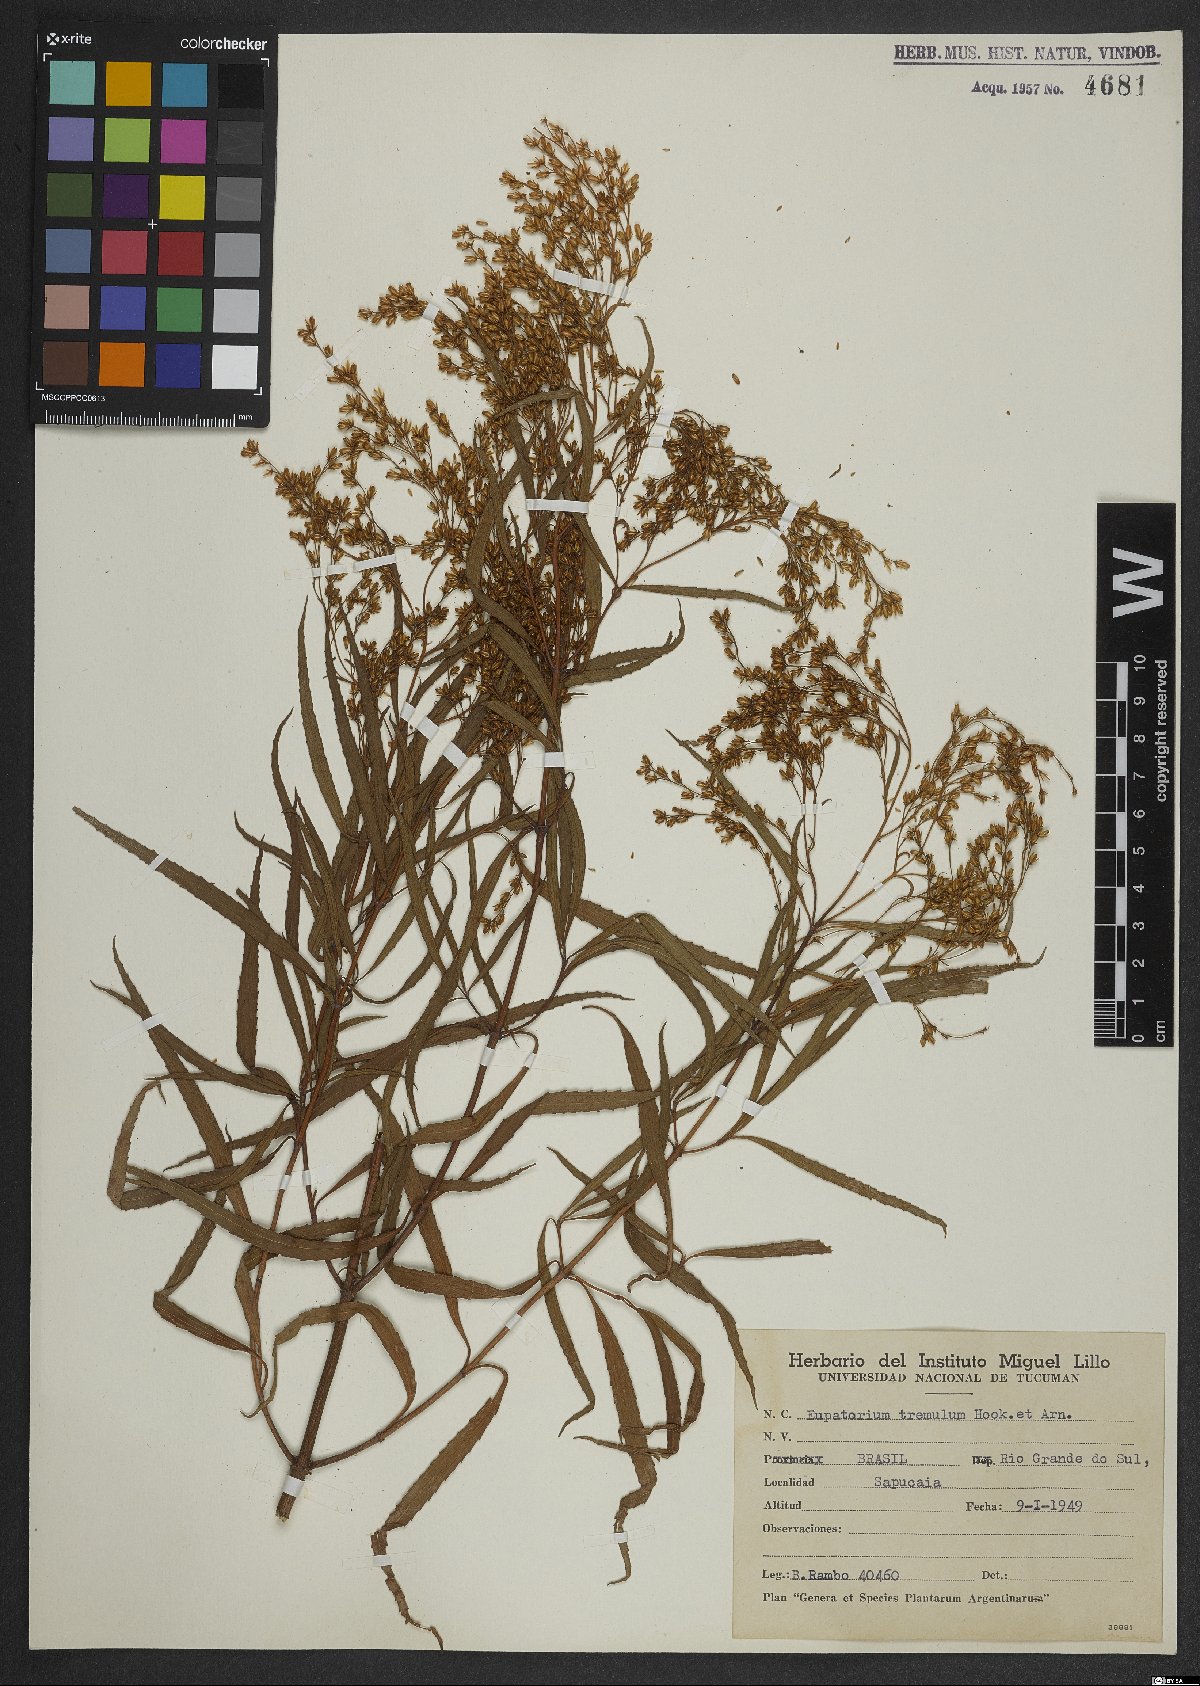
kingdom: Plantae
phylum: Tracheophyta
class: Magnoliopsida
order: Asterales
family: Asteraceae
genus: Raulinoreitzia
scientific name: Raulinoreitzia tremula
